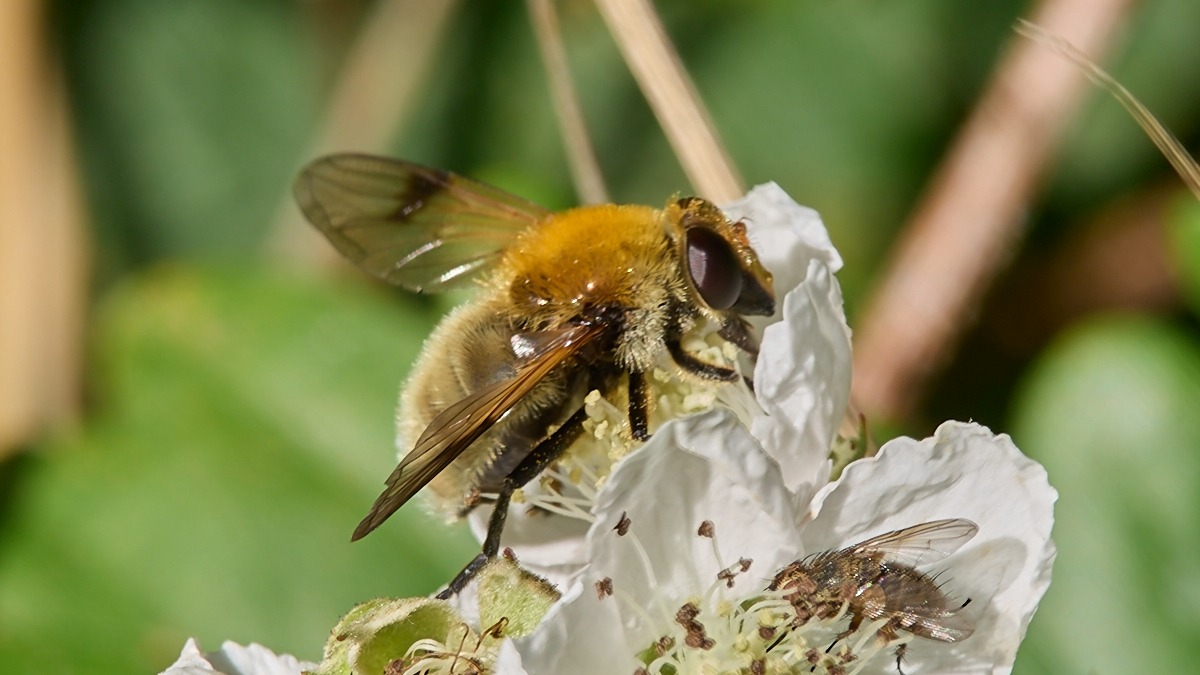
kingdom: Animalia
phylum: Arthropoda
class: Insecta
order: Diptera
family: Syrphidae
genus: Sericomyia
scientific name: Sericomyia superbiens
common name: Brun bjørnesvirreflue
